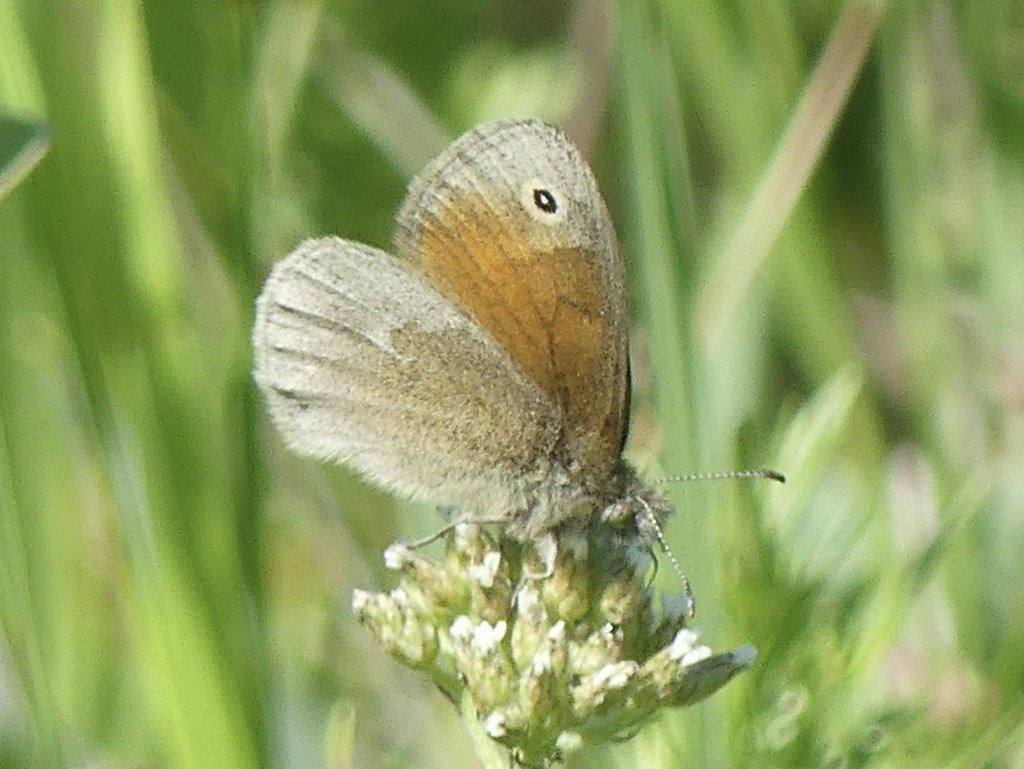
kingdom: Animalia
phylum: Arthropoda
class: Insecta
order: Lepidoptera
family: Nymphalidae
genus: Coenonympha
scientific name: Coenonympha tullia
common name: Large Heath
